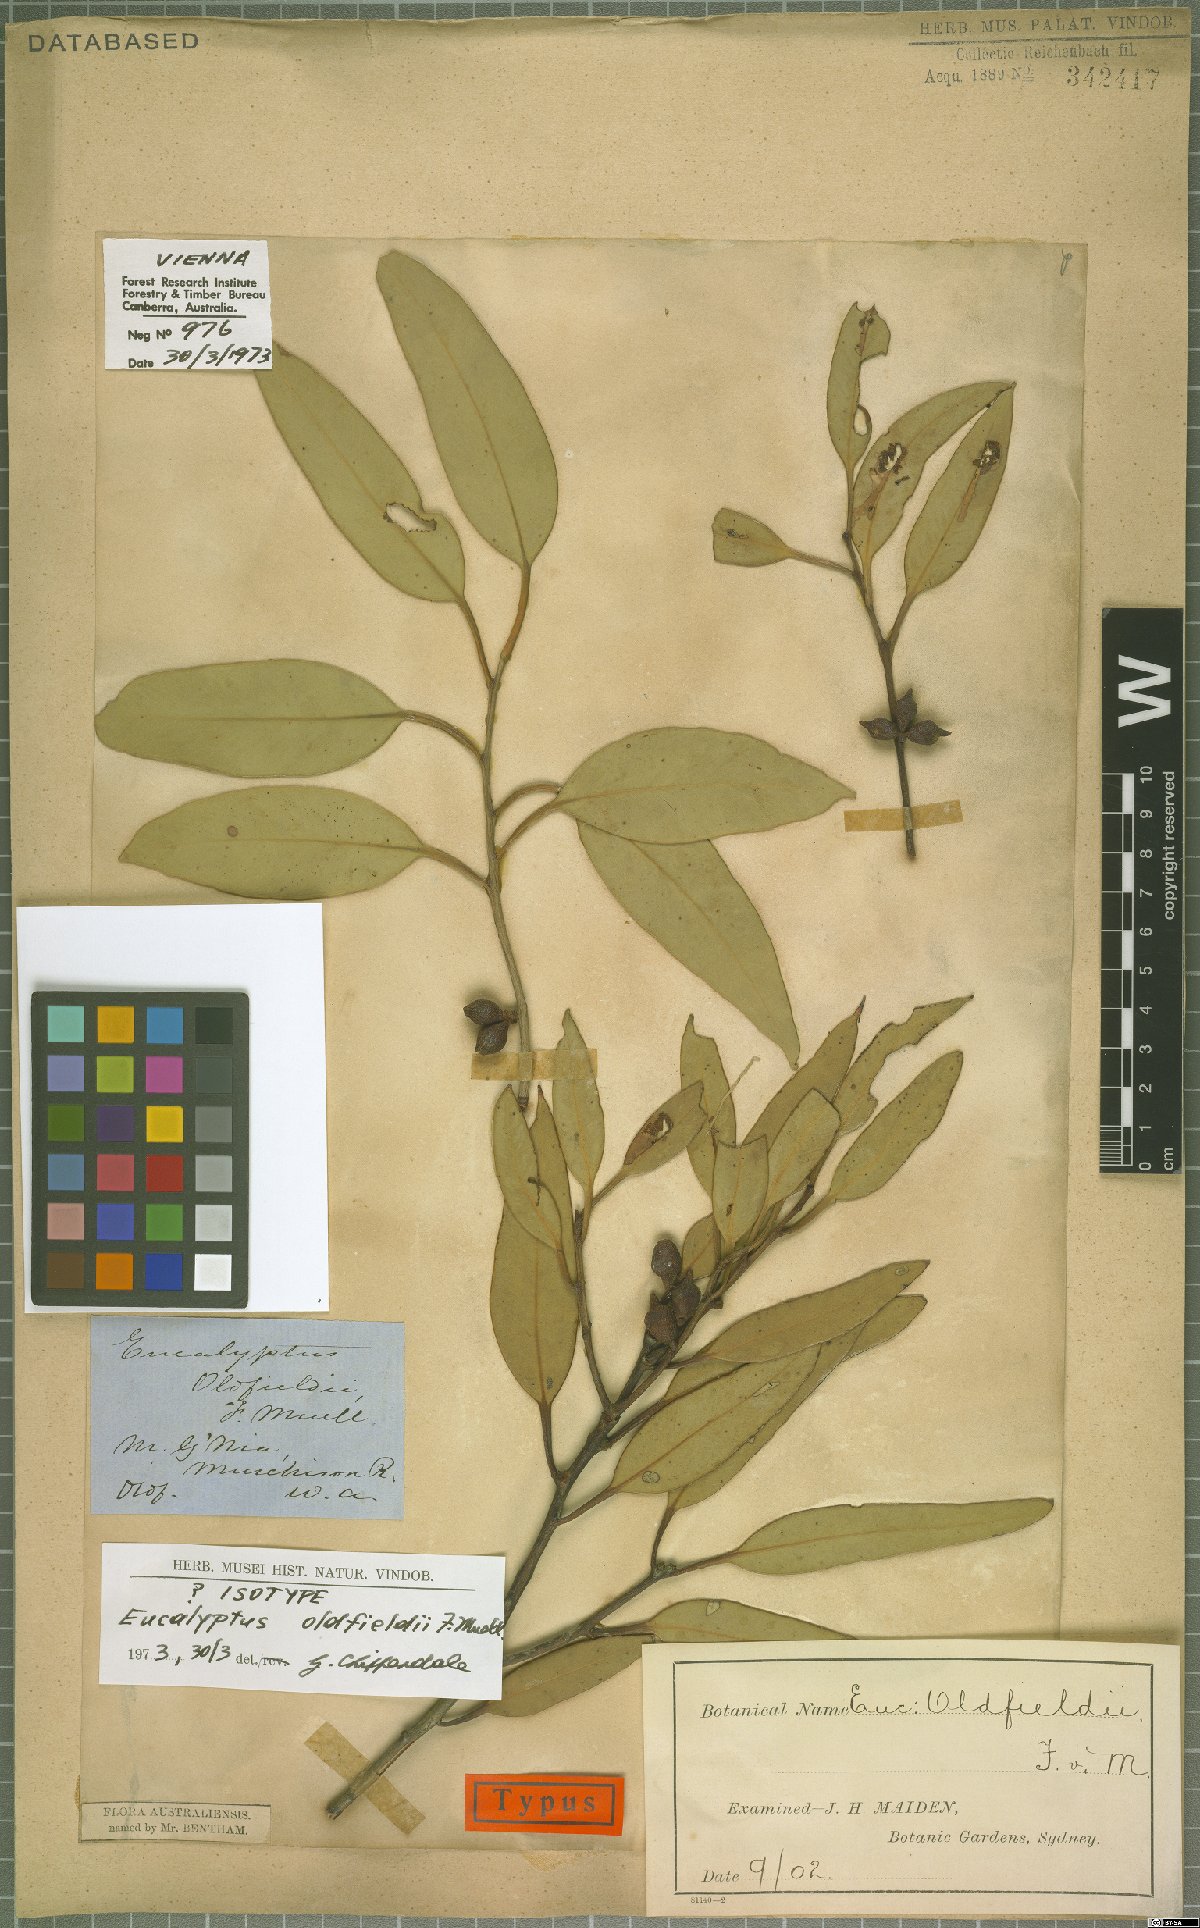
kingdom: Plantae
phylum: Tracheophyta
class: Magnoliopsida
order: Myrtales
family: Myrtaceae
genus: Eucalyptus
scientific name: Eucalyptus oldfieldii
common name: Old-fields mallee
